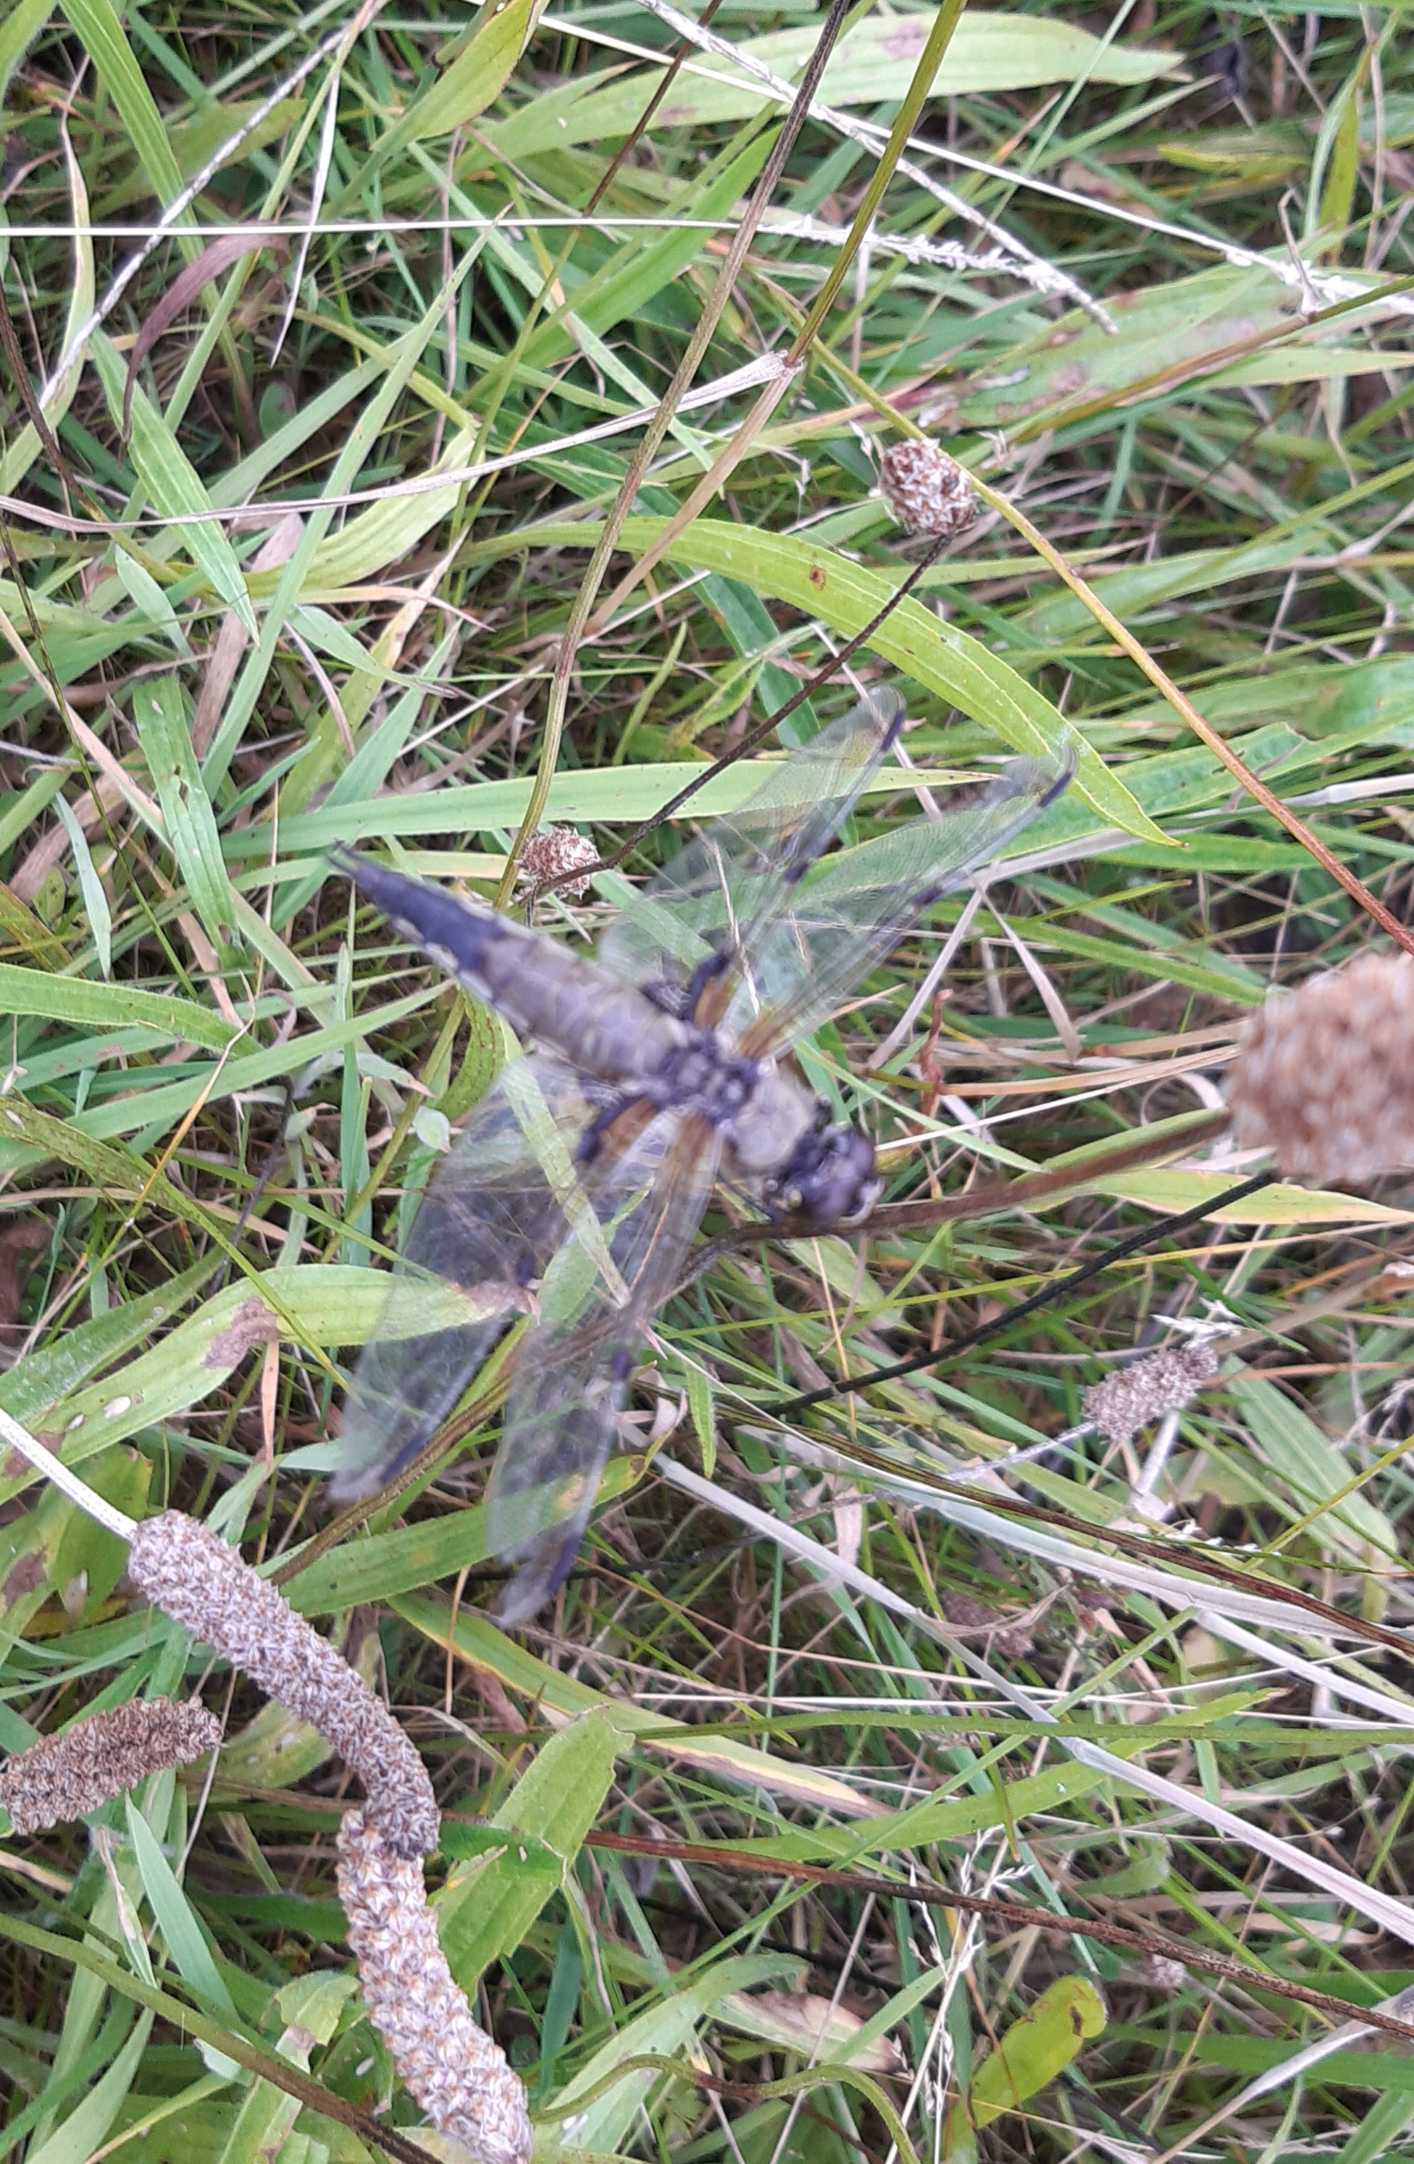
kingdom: Animalia
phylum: Arthropoda
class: Insecta
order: Odonata
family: Libellulidae
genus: Libellula
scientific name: Libellula quadrimaculata
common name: Fireplettet libel
